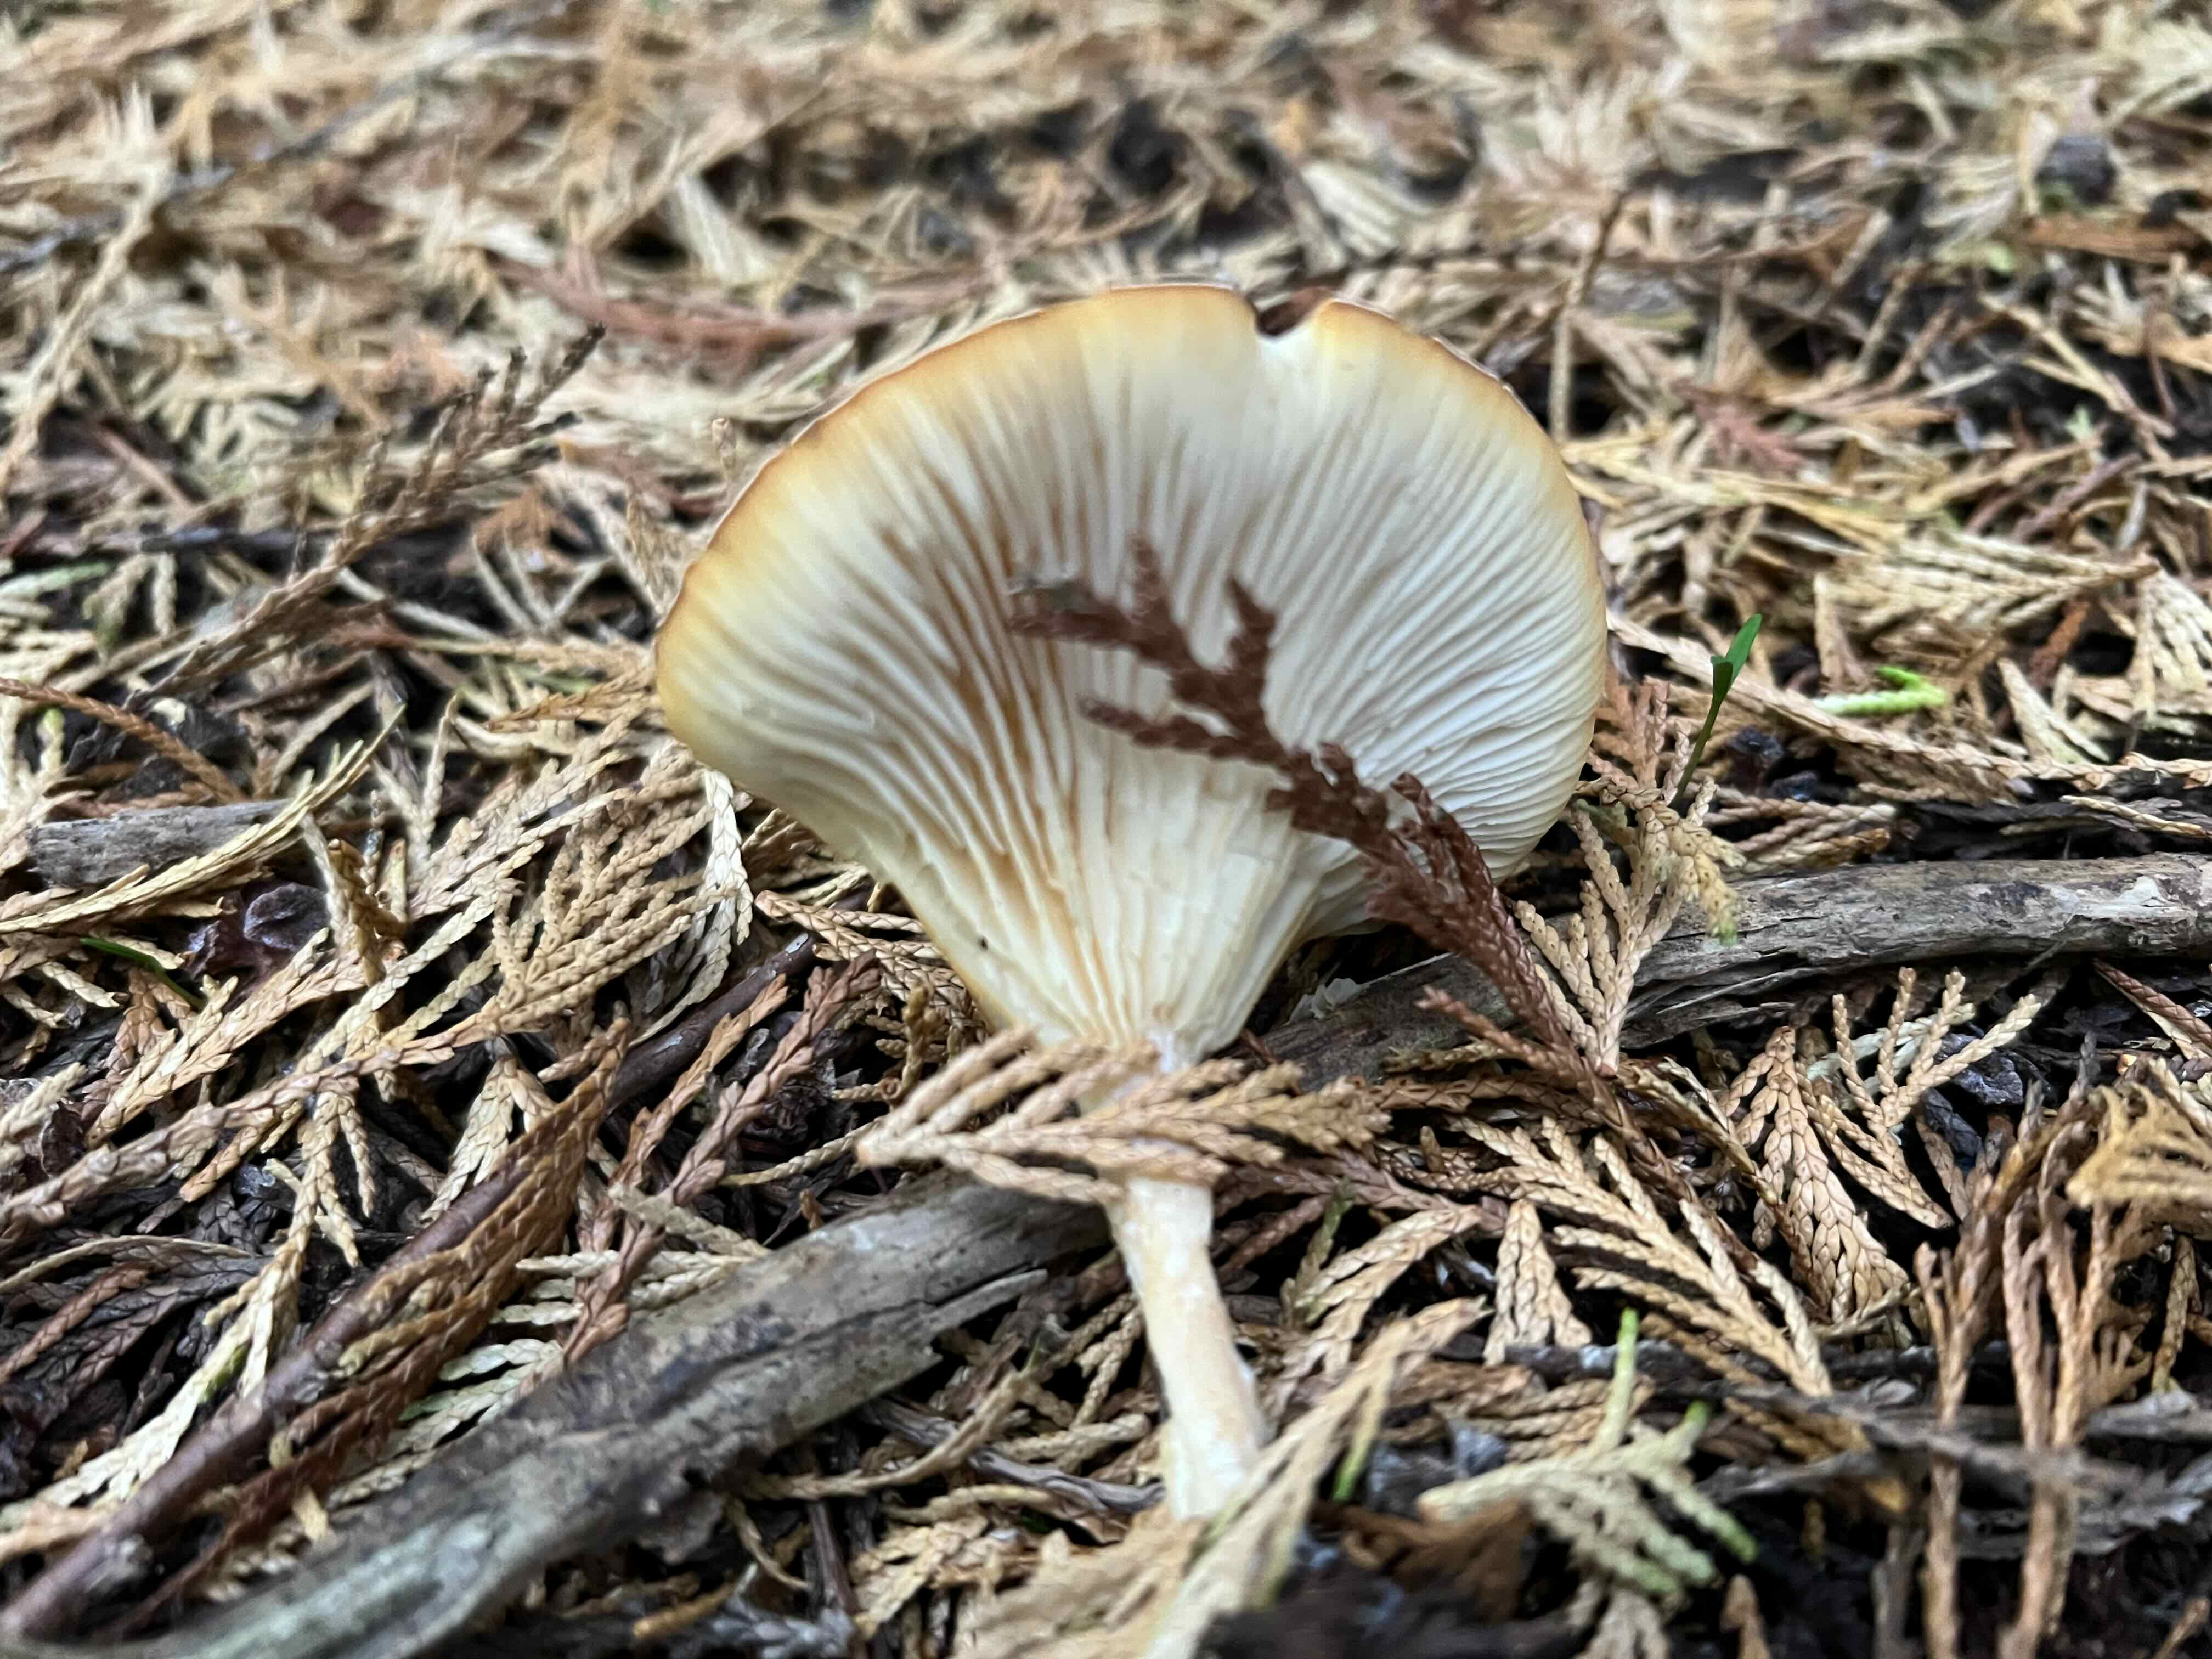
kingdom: Fungi
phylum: Basidiomycota
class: Agaricomycetes
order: Agaricales
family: Tricholomataceae
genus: Infundibulicybe
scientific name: Infundibulicybe gibba
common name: almindelig tragthat
